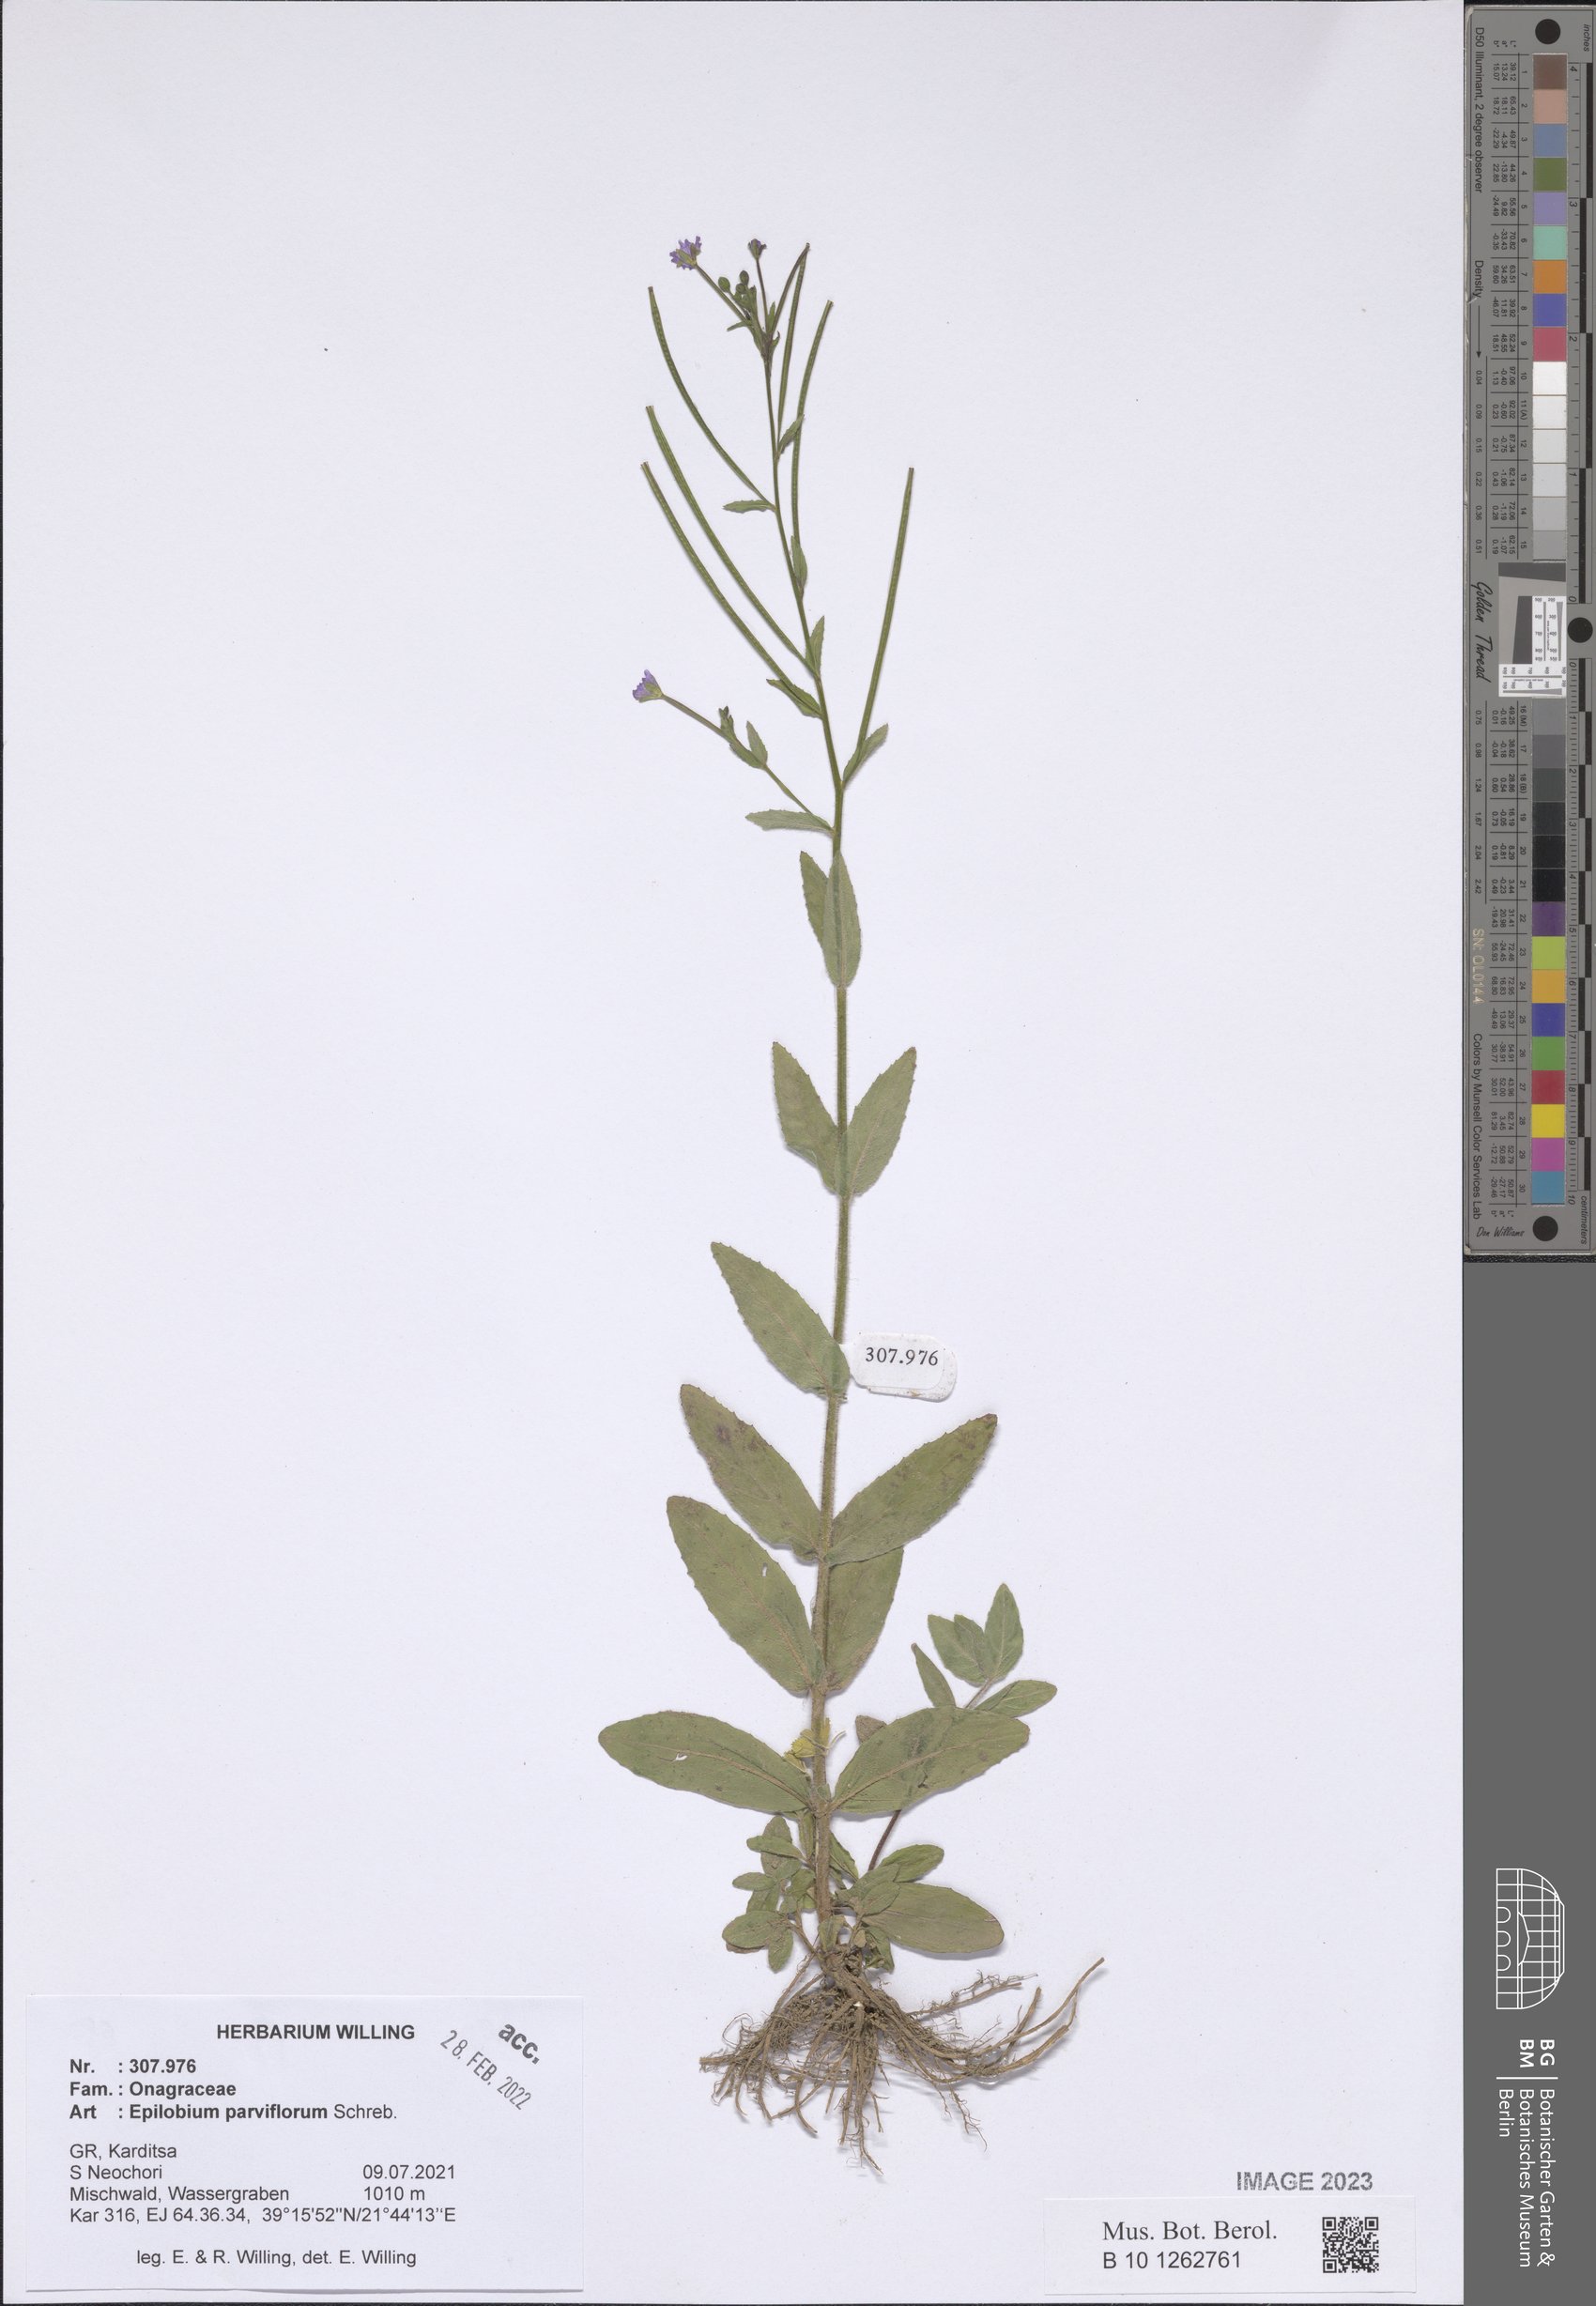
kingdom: Plantae
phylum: Tracheophyta
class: Magnoliopsida
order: Myrtales
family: Onagraceae
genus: Epilobium
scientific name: Epilobium parviflorum
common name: Hoary willowherb
